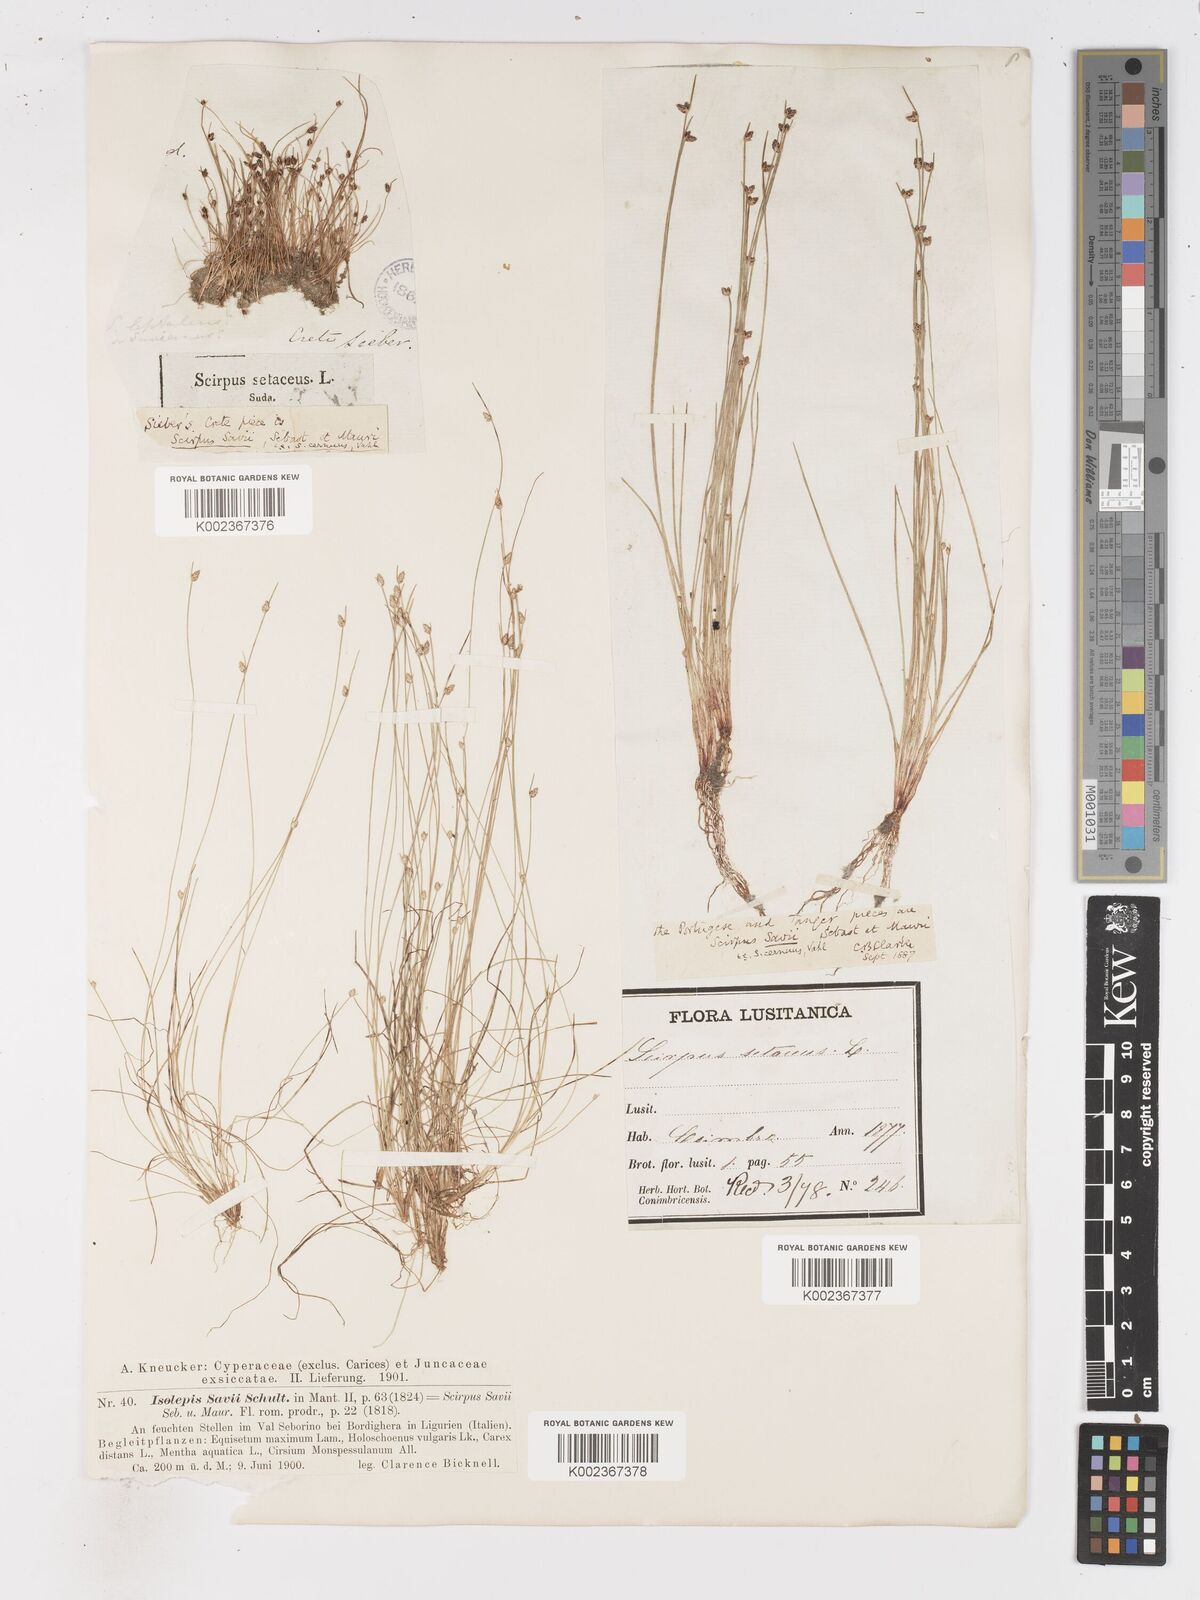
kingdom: Plantae
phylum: Tracheophyta
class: Liliopsida
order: Poales
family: Cyperaceae
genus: Isolepis
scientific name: Isolepis cernua
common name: Slender club-rush
